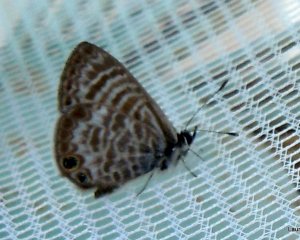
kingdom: Animalia
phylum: Arthropoda
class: Insecta
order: Lepidoptera
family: Lycaenidae
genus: Leptotes
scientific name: Leptotes marina
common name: Marine Blue
